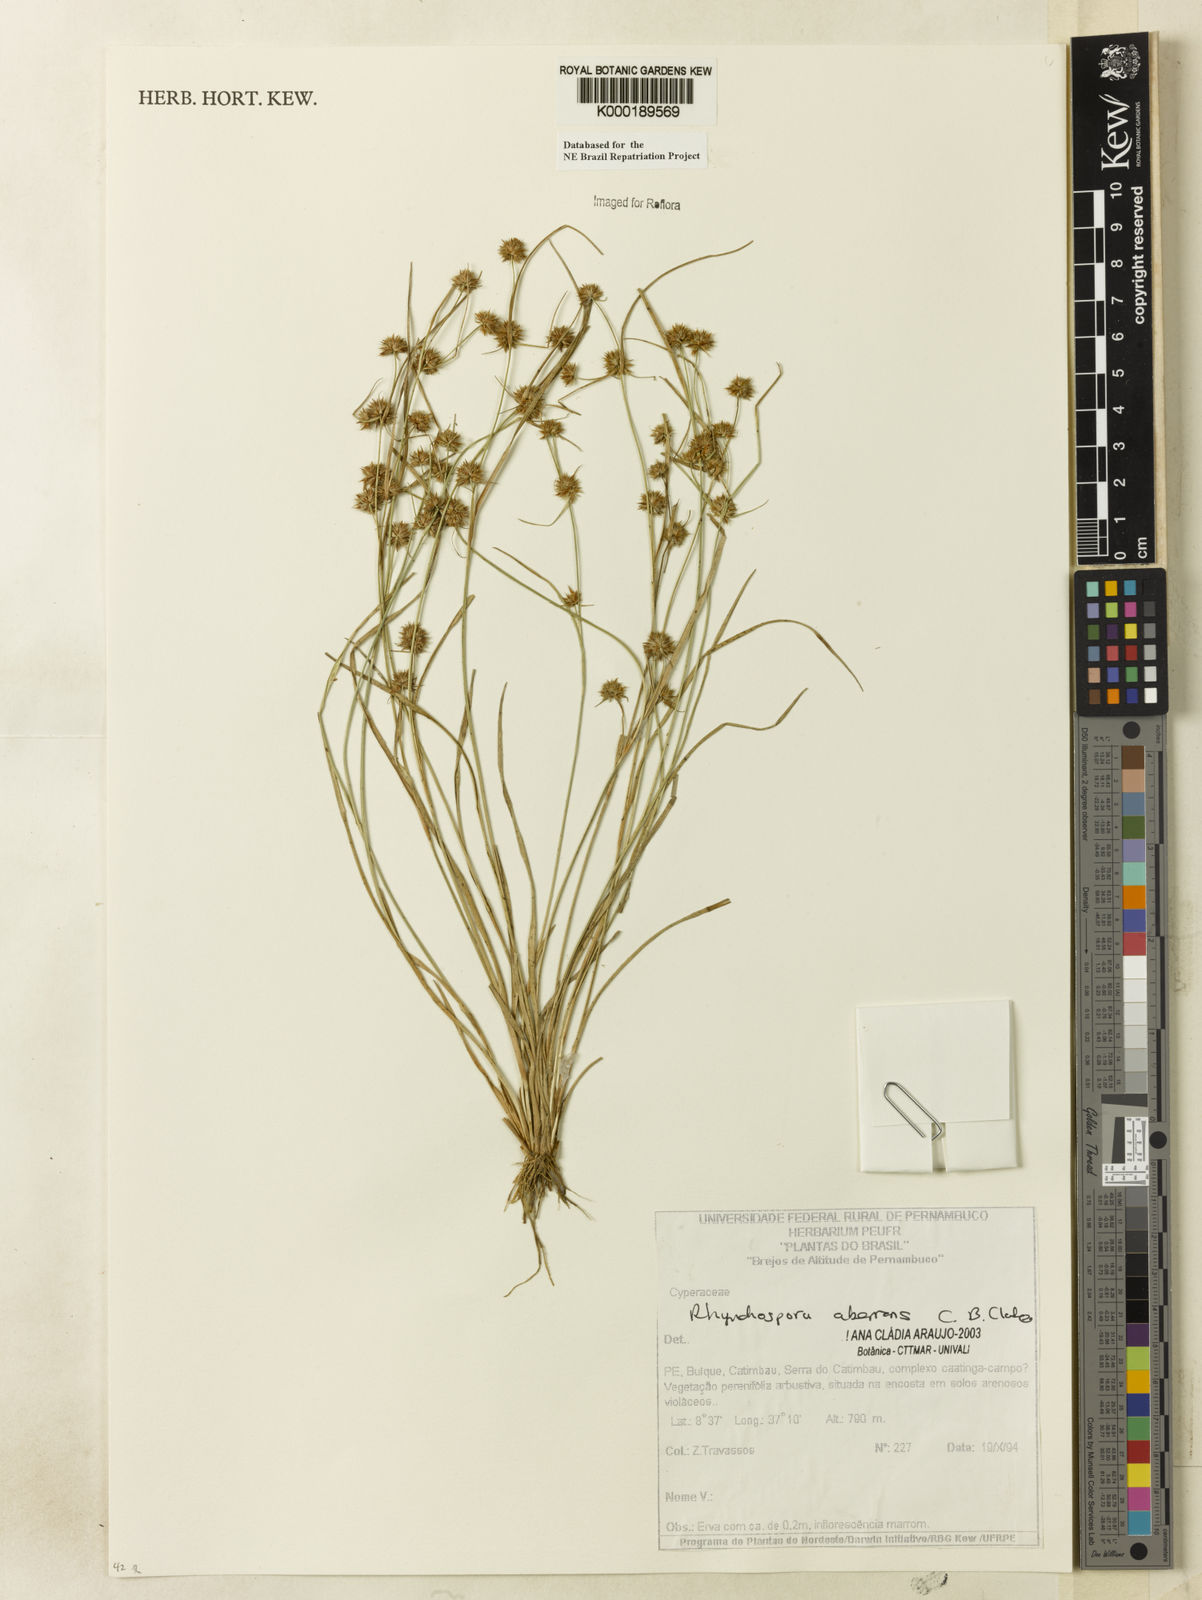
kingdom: Plantae
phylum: Tracheophyta
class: Liliopsida
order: Poales
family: Cyperaceae
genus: Rhynchospora
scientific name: Rhynchospora aberrans
